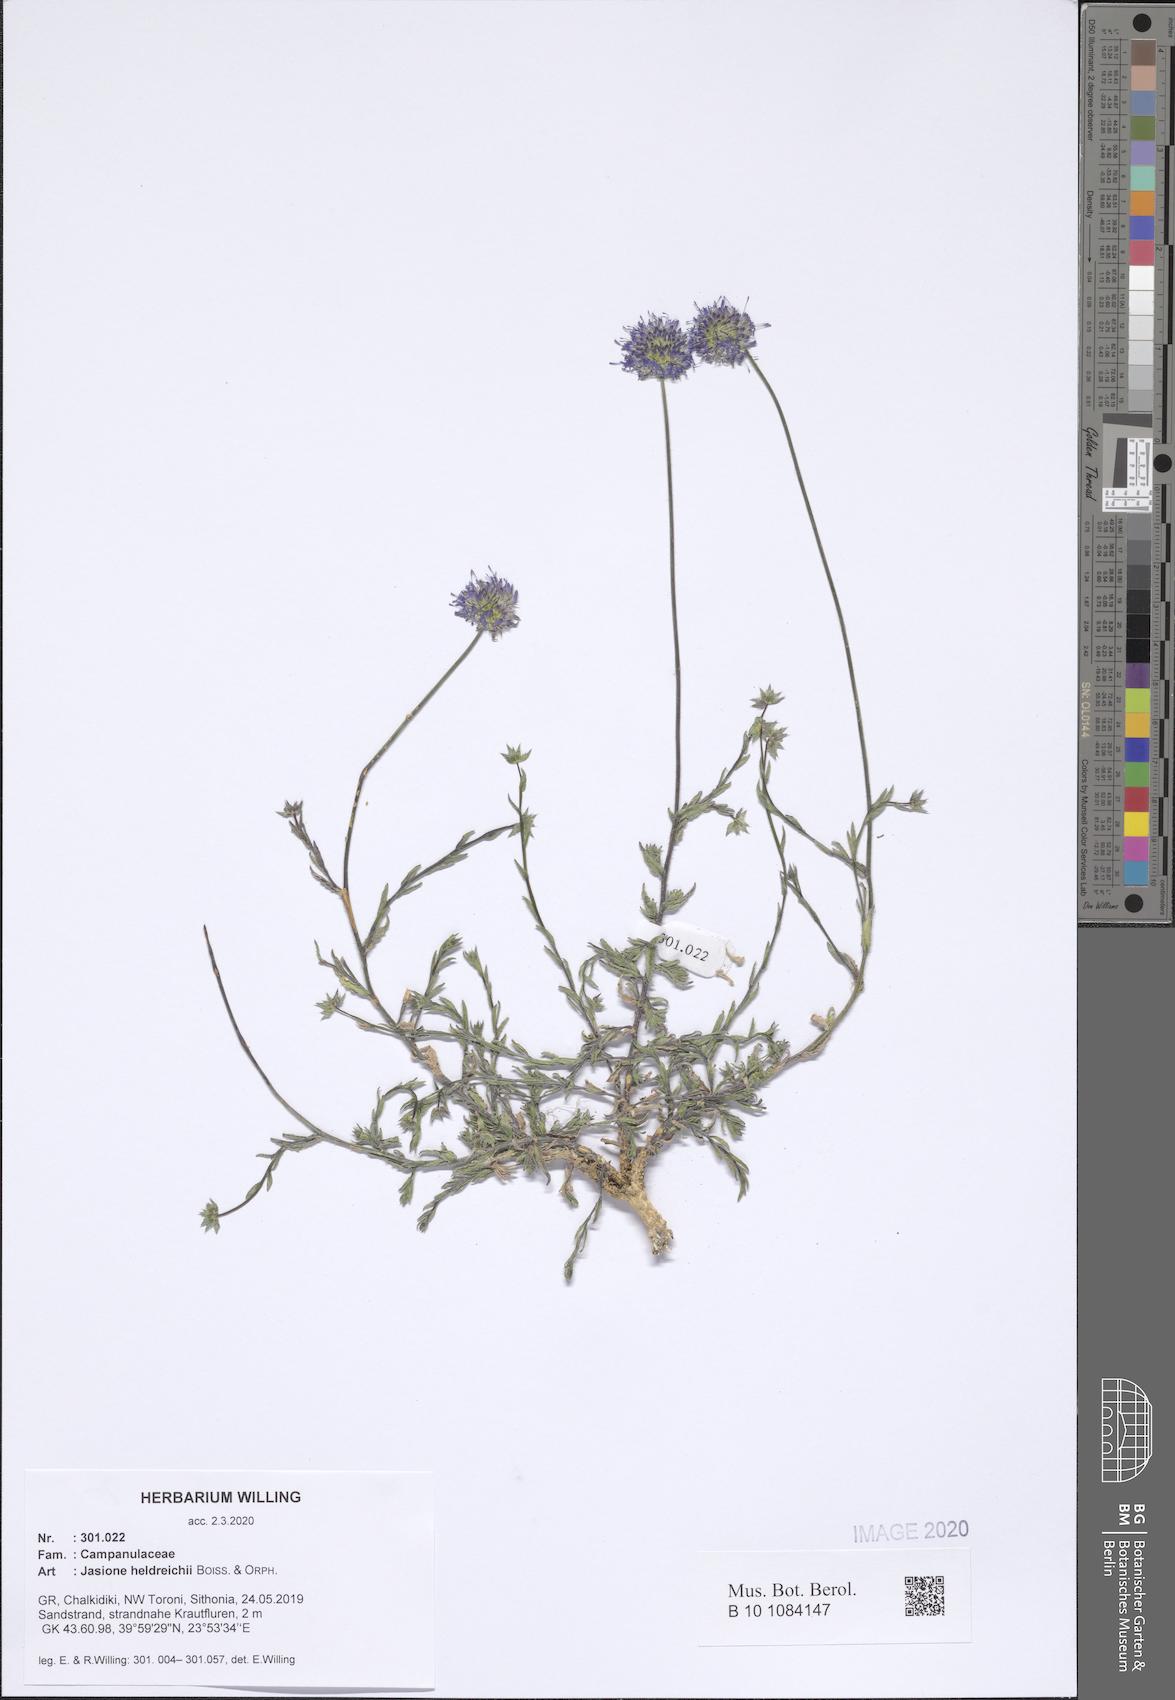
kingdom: Plantae
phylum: Tracheophyta
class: Magnoliopsida
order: Asterales
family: Campanulaceae
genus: Jasione
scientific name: Jasione heldreichii
